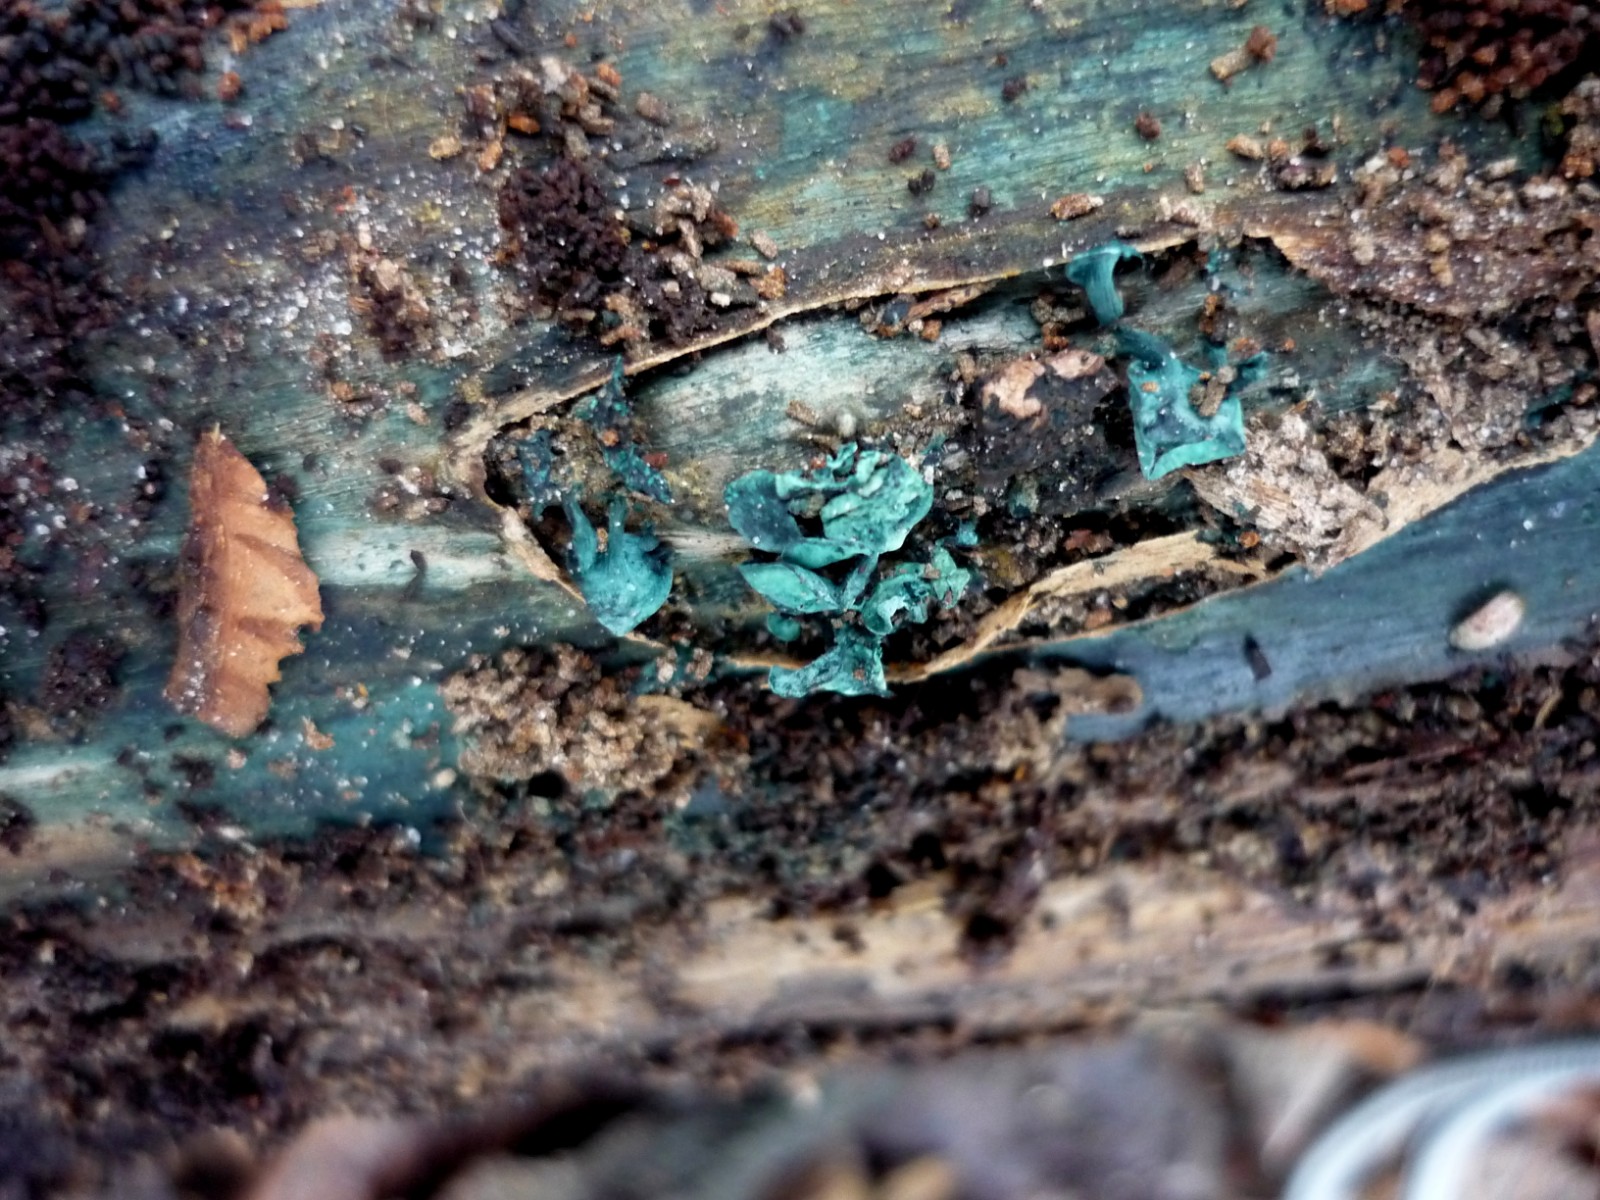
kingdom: Fungi
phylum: Ascomycota
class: Leotiomycetes
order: Helotiales
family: Chlorociboriaceae
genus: Chlorociboria
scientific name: Chlorociboria aeruginascens
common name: almindelig grønskive
